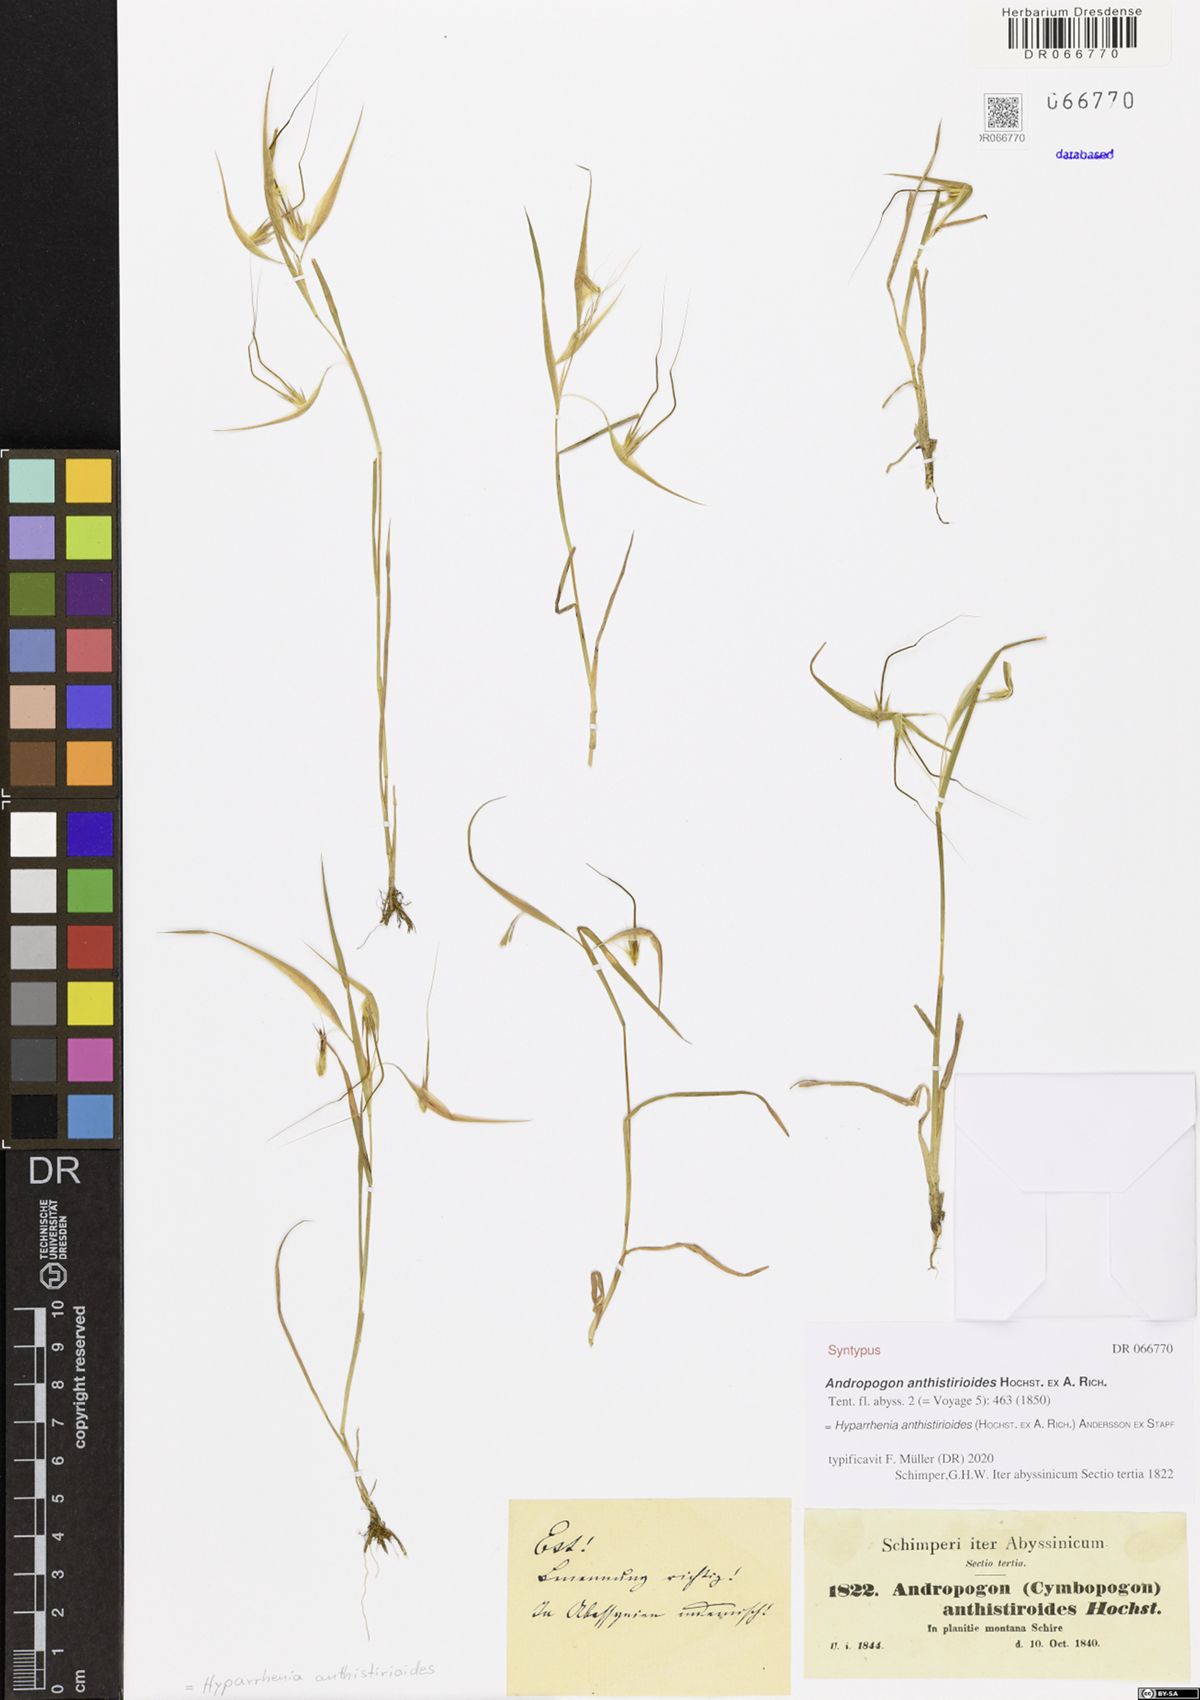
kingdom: Plantae
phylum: Tracheophyta
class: Liliopsida
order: Poales
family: Poaceae
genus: Hyparrhenia
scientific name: Hyparrhenia anthistirioides
